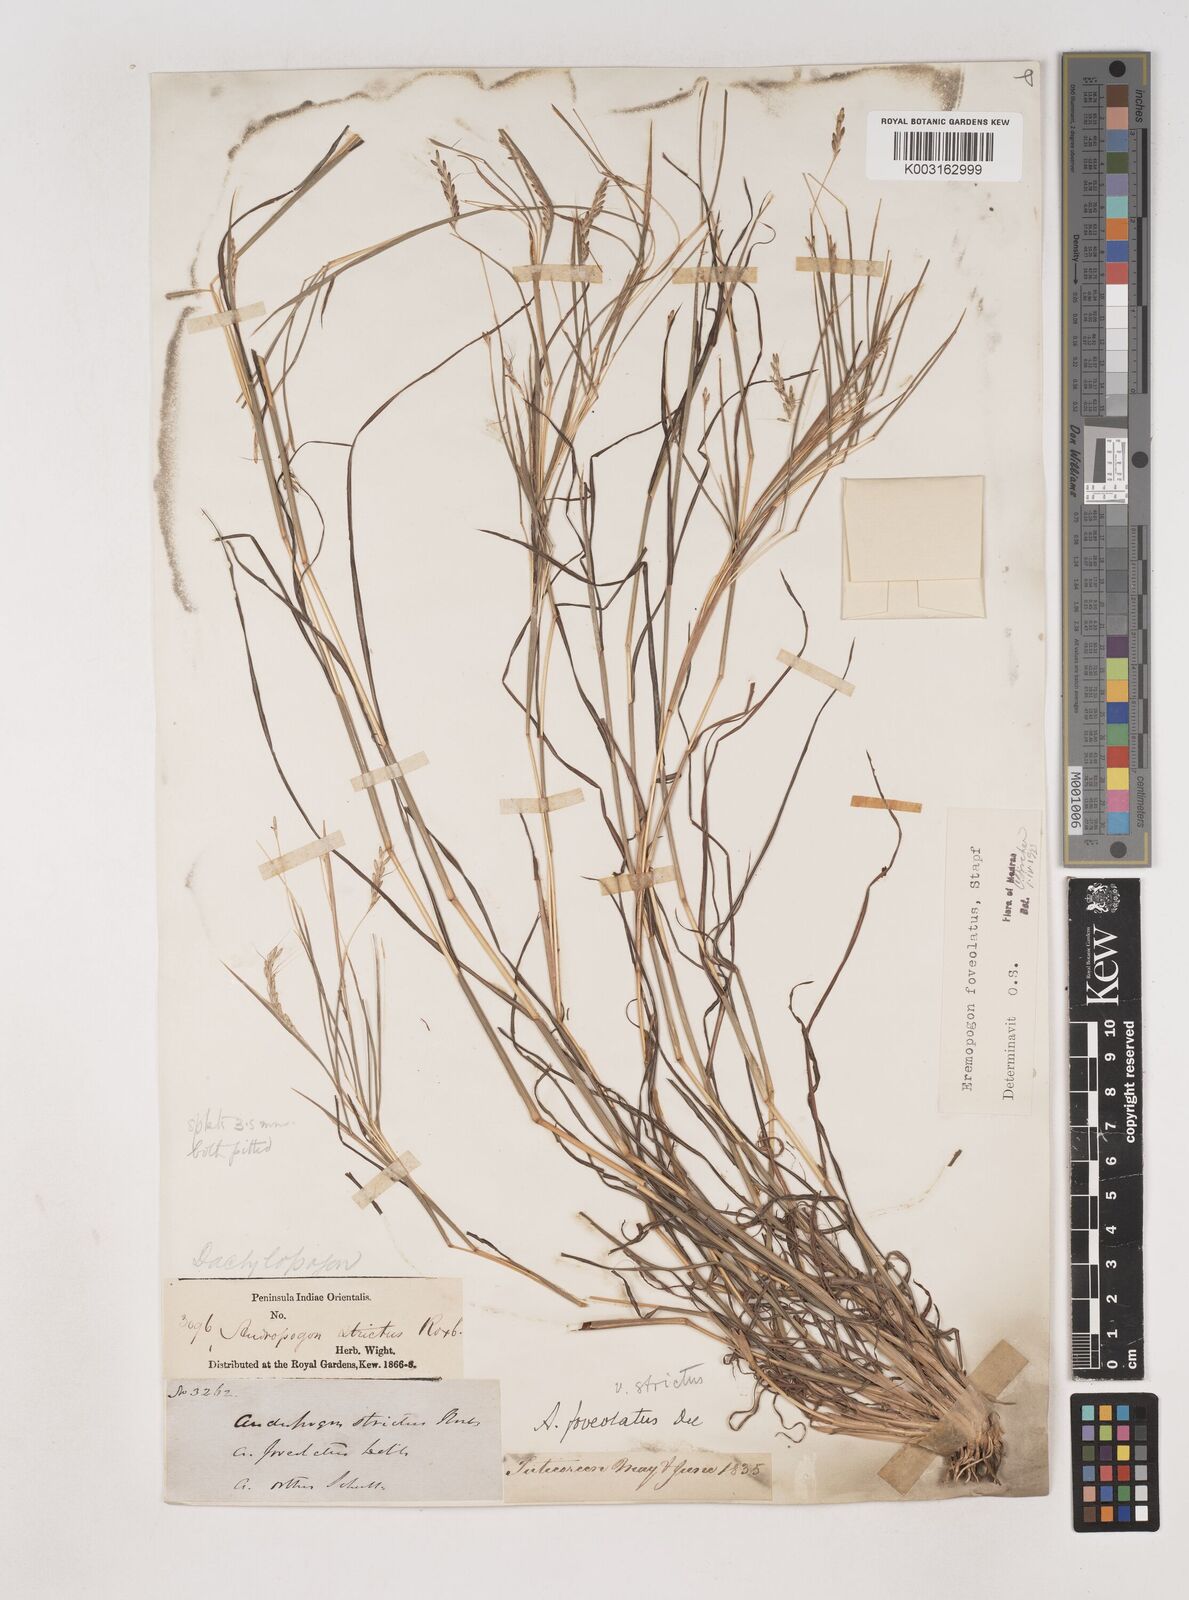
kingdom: Plantae
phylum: Tracheophyta
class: Liliopsida
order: Poales
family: Poaceae
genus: Dichanthium
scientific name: Dichanthium foveolatum
